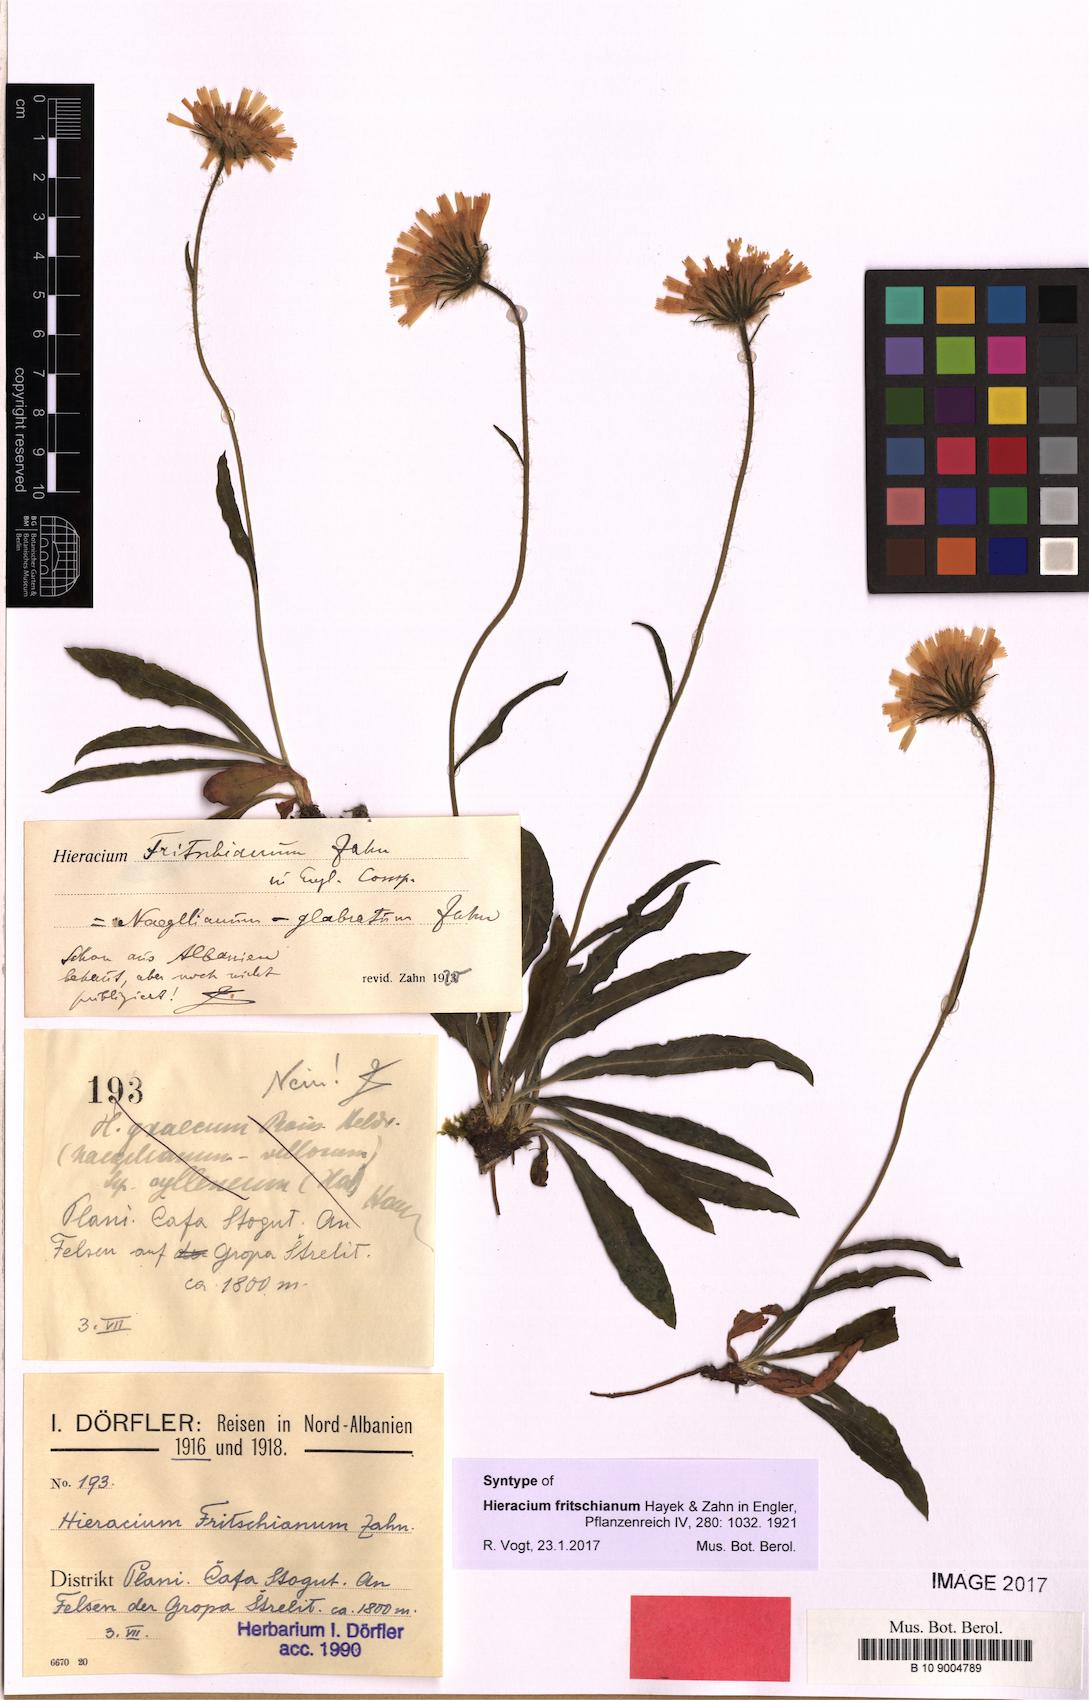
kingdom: Plantae
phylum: Tracheophyta
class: Magnoliopsida
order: Asterales
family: Asteraceae
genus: Hieracium
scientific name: Hieracium fritschianum
